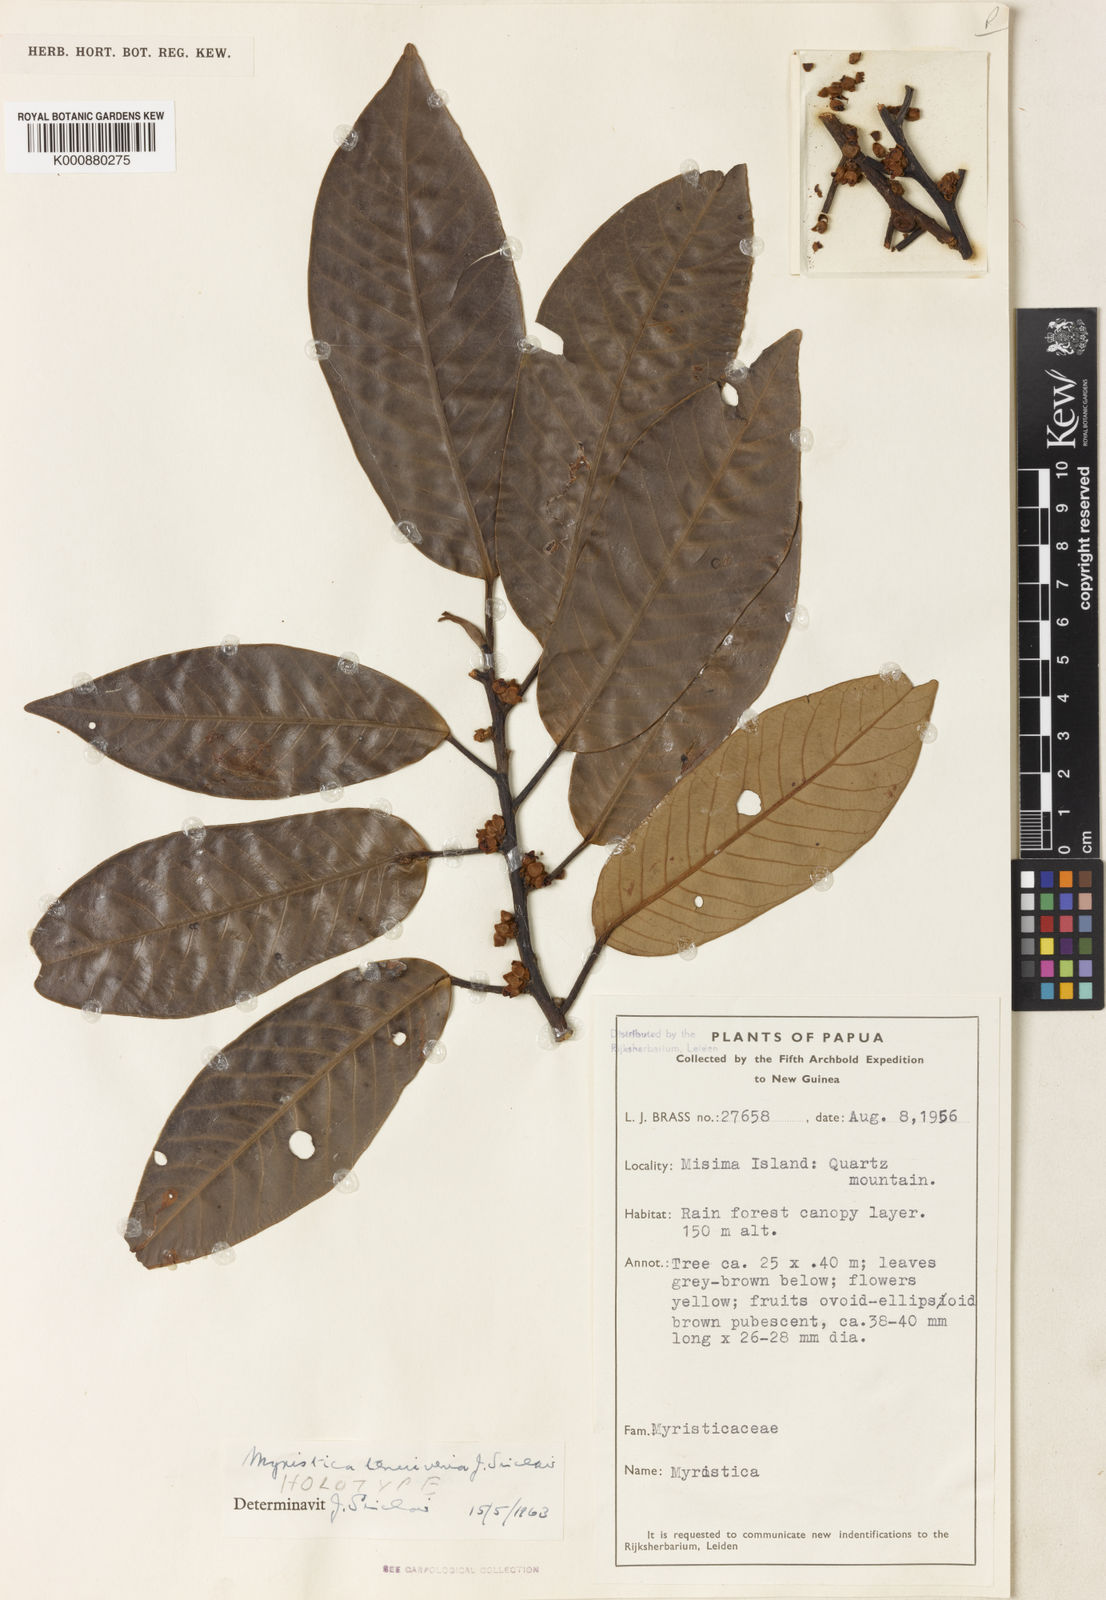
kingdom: Plantae
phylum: Tracheophyta
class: Magnoliopsida
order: Magnoliales
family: Myristicaceae
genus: Myristica
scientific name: Myristica tenuivenia
